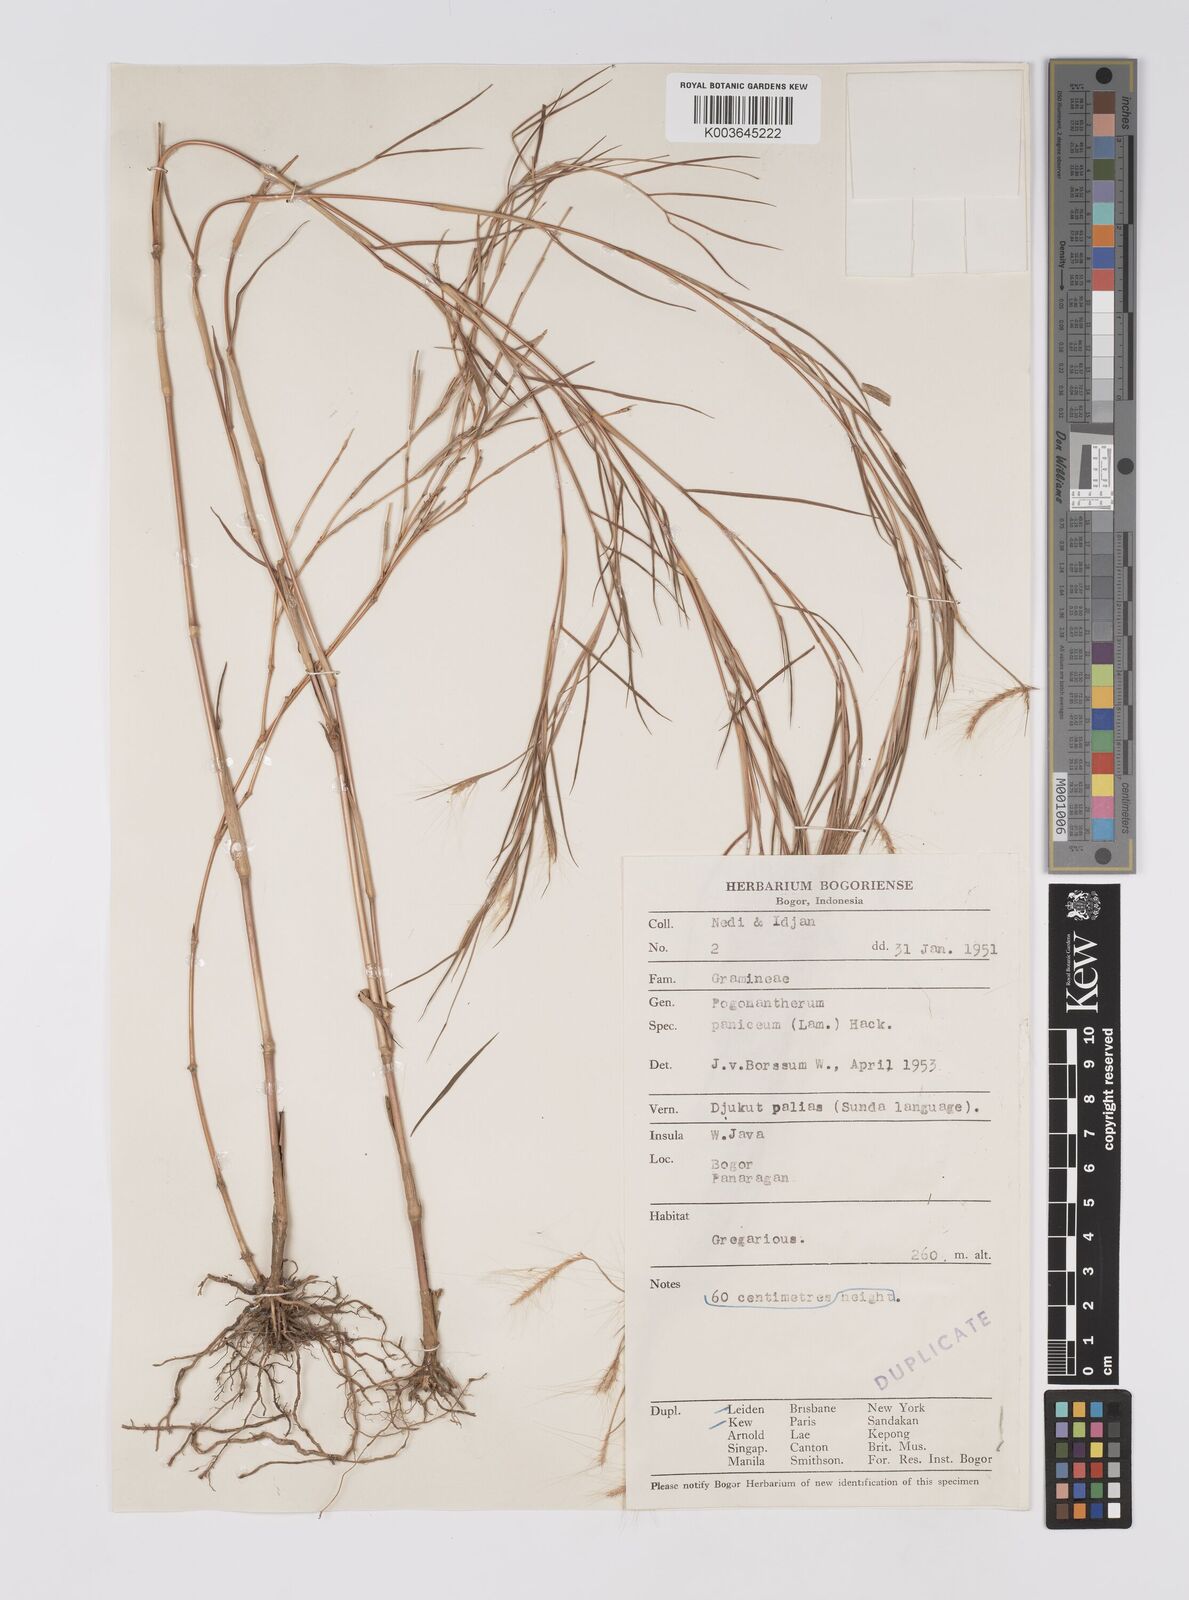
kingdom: Plantae
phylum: Tracheophyta
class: Liliopsida
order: Poales
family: Poaceae
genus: Pogonatherum
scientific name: Pogonatherum paniceum
